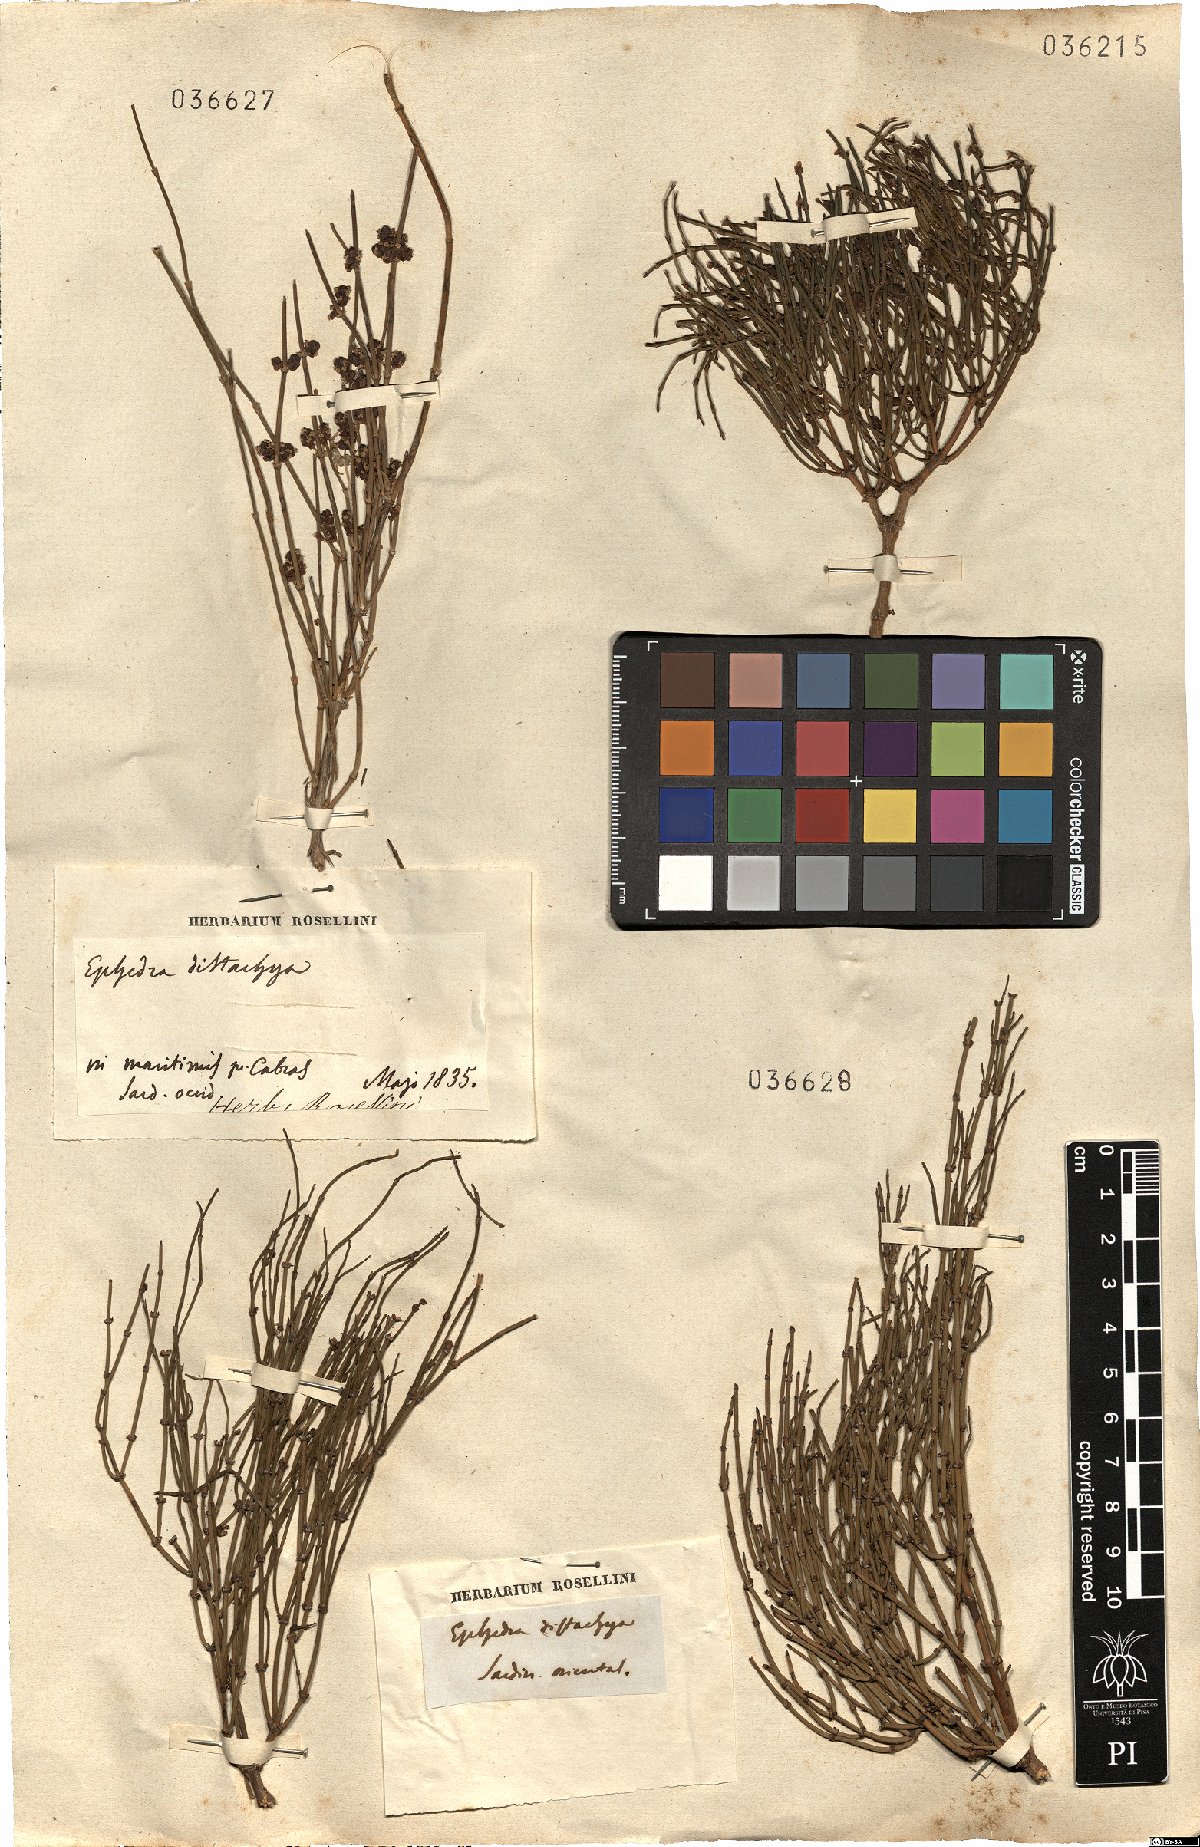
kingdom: Plantae
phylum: Tracheophyta
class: Gnetopsida
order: Ephedrales
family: Ephedraceae
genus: Ephedra
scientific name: Ephedra distachya
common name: Sea grape
